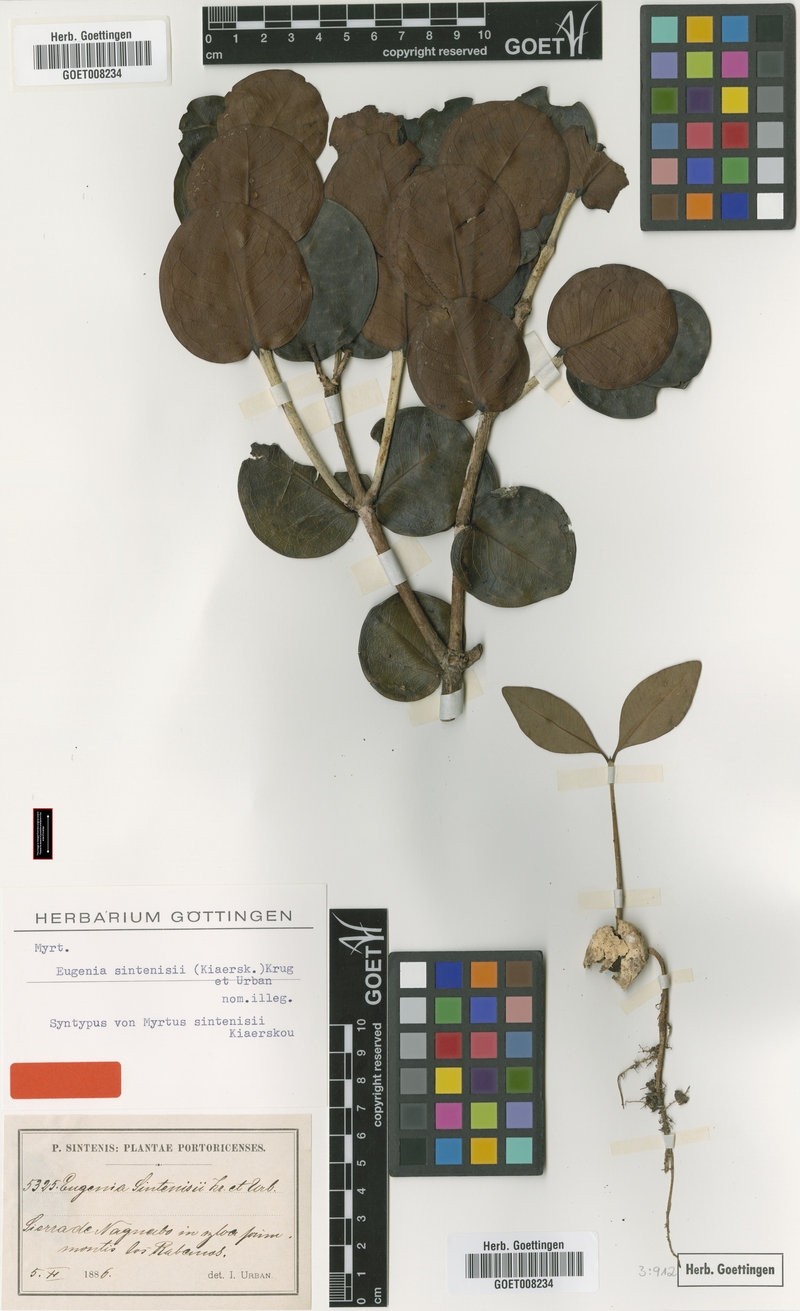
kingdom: Plantae
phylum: Tracheophyta
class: Magnoliopsida
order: Myrtales
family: Myrtaceae
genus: Eugenia
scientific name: Eugenia cordata
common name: Lathberry
